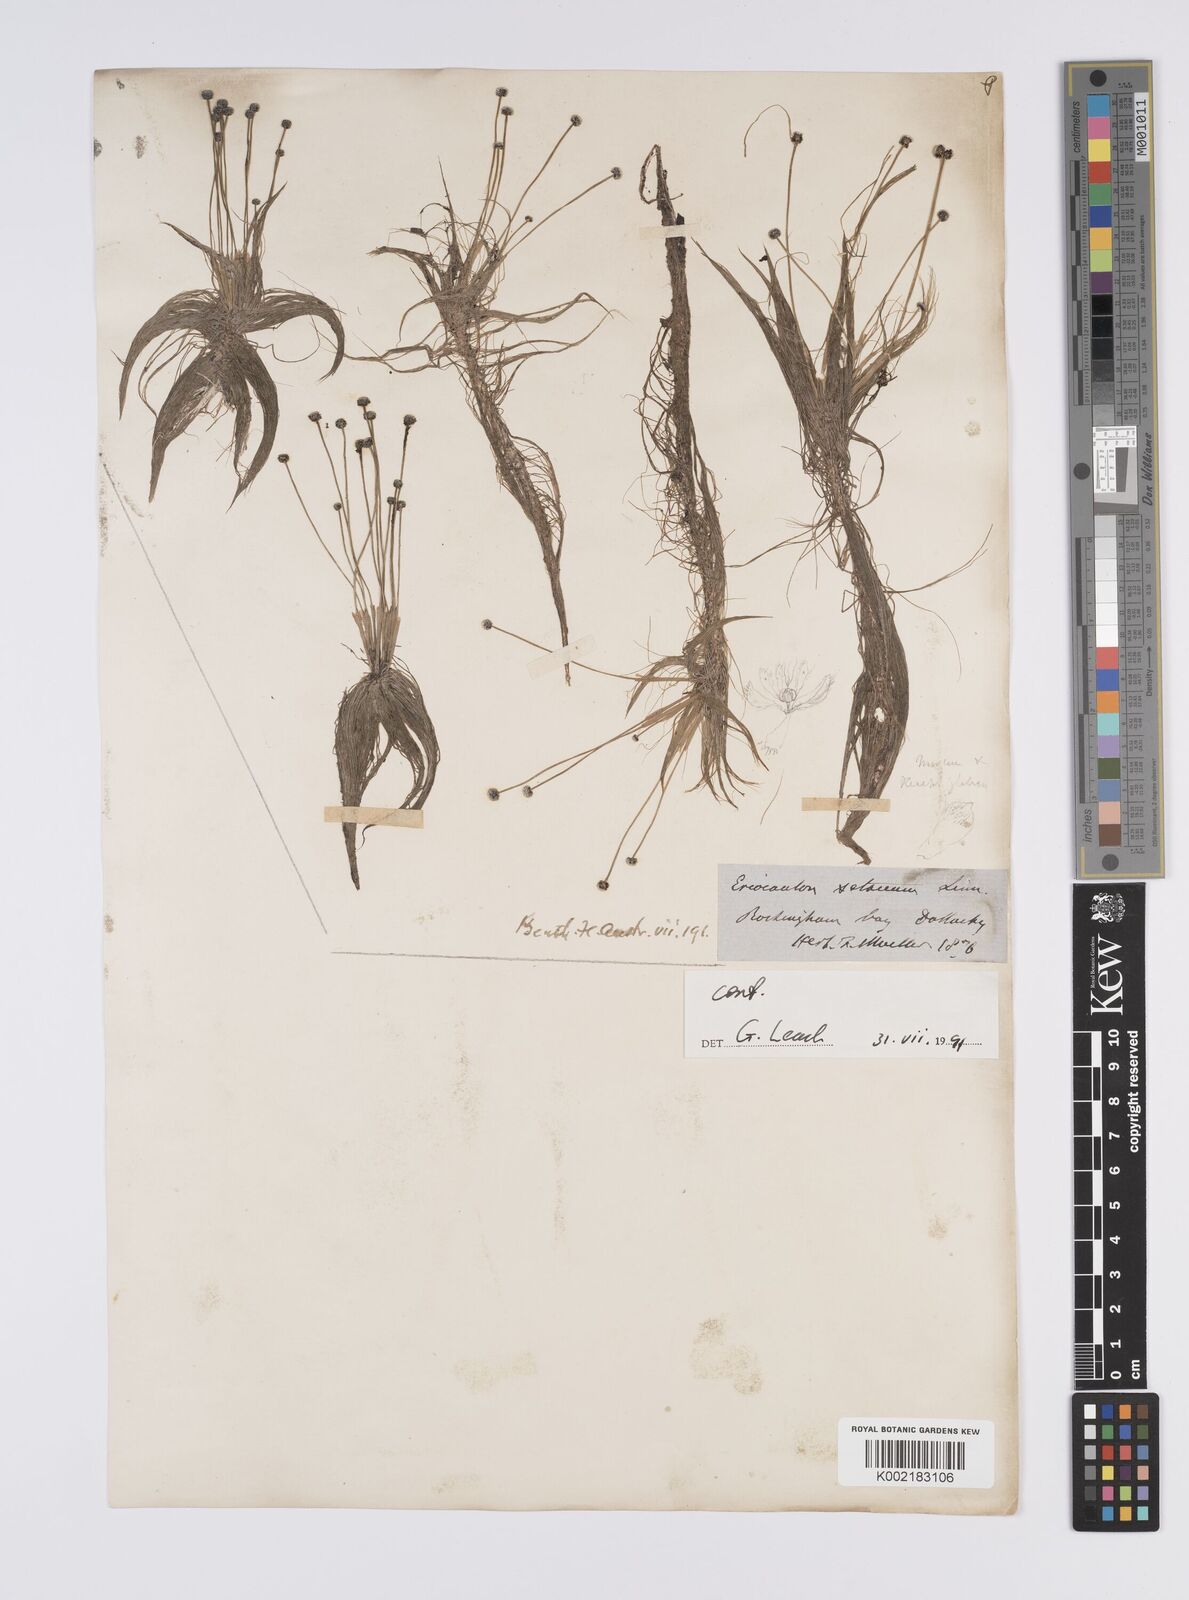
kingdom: Plantae
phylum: Tracheophyta
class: Liliopsida
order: Poales
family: Eriocaulaceae
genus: Eriocaulon
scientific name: Eriocaulon setaceum
